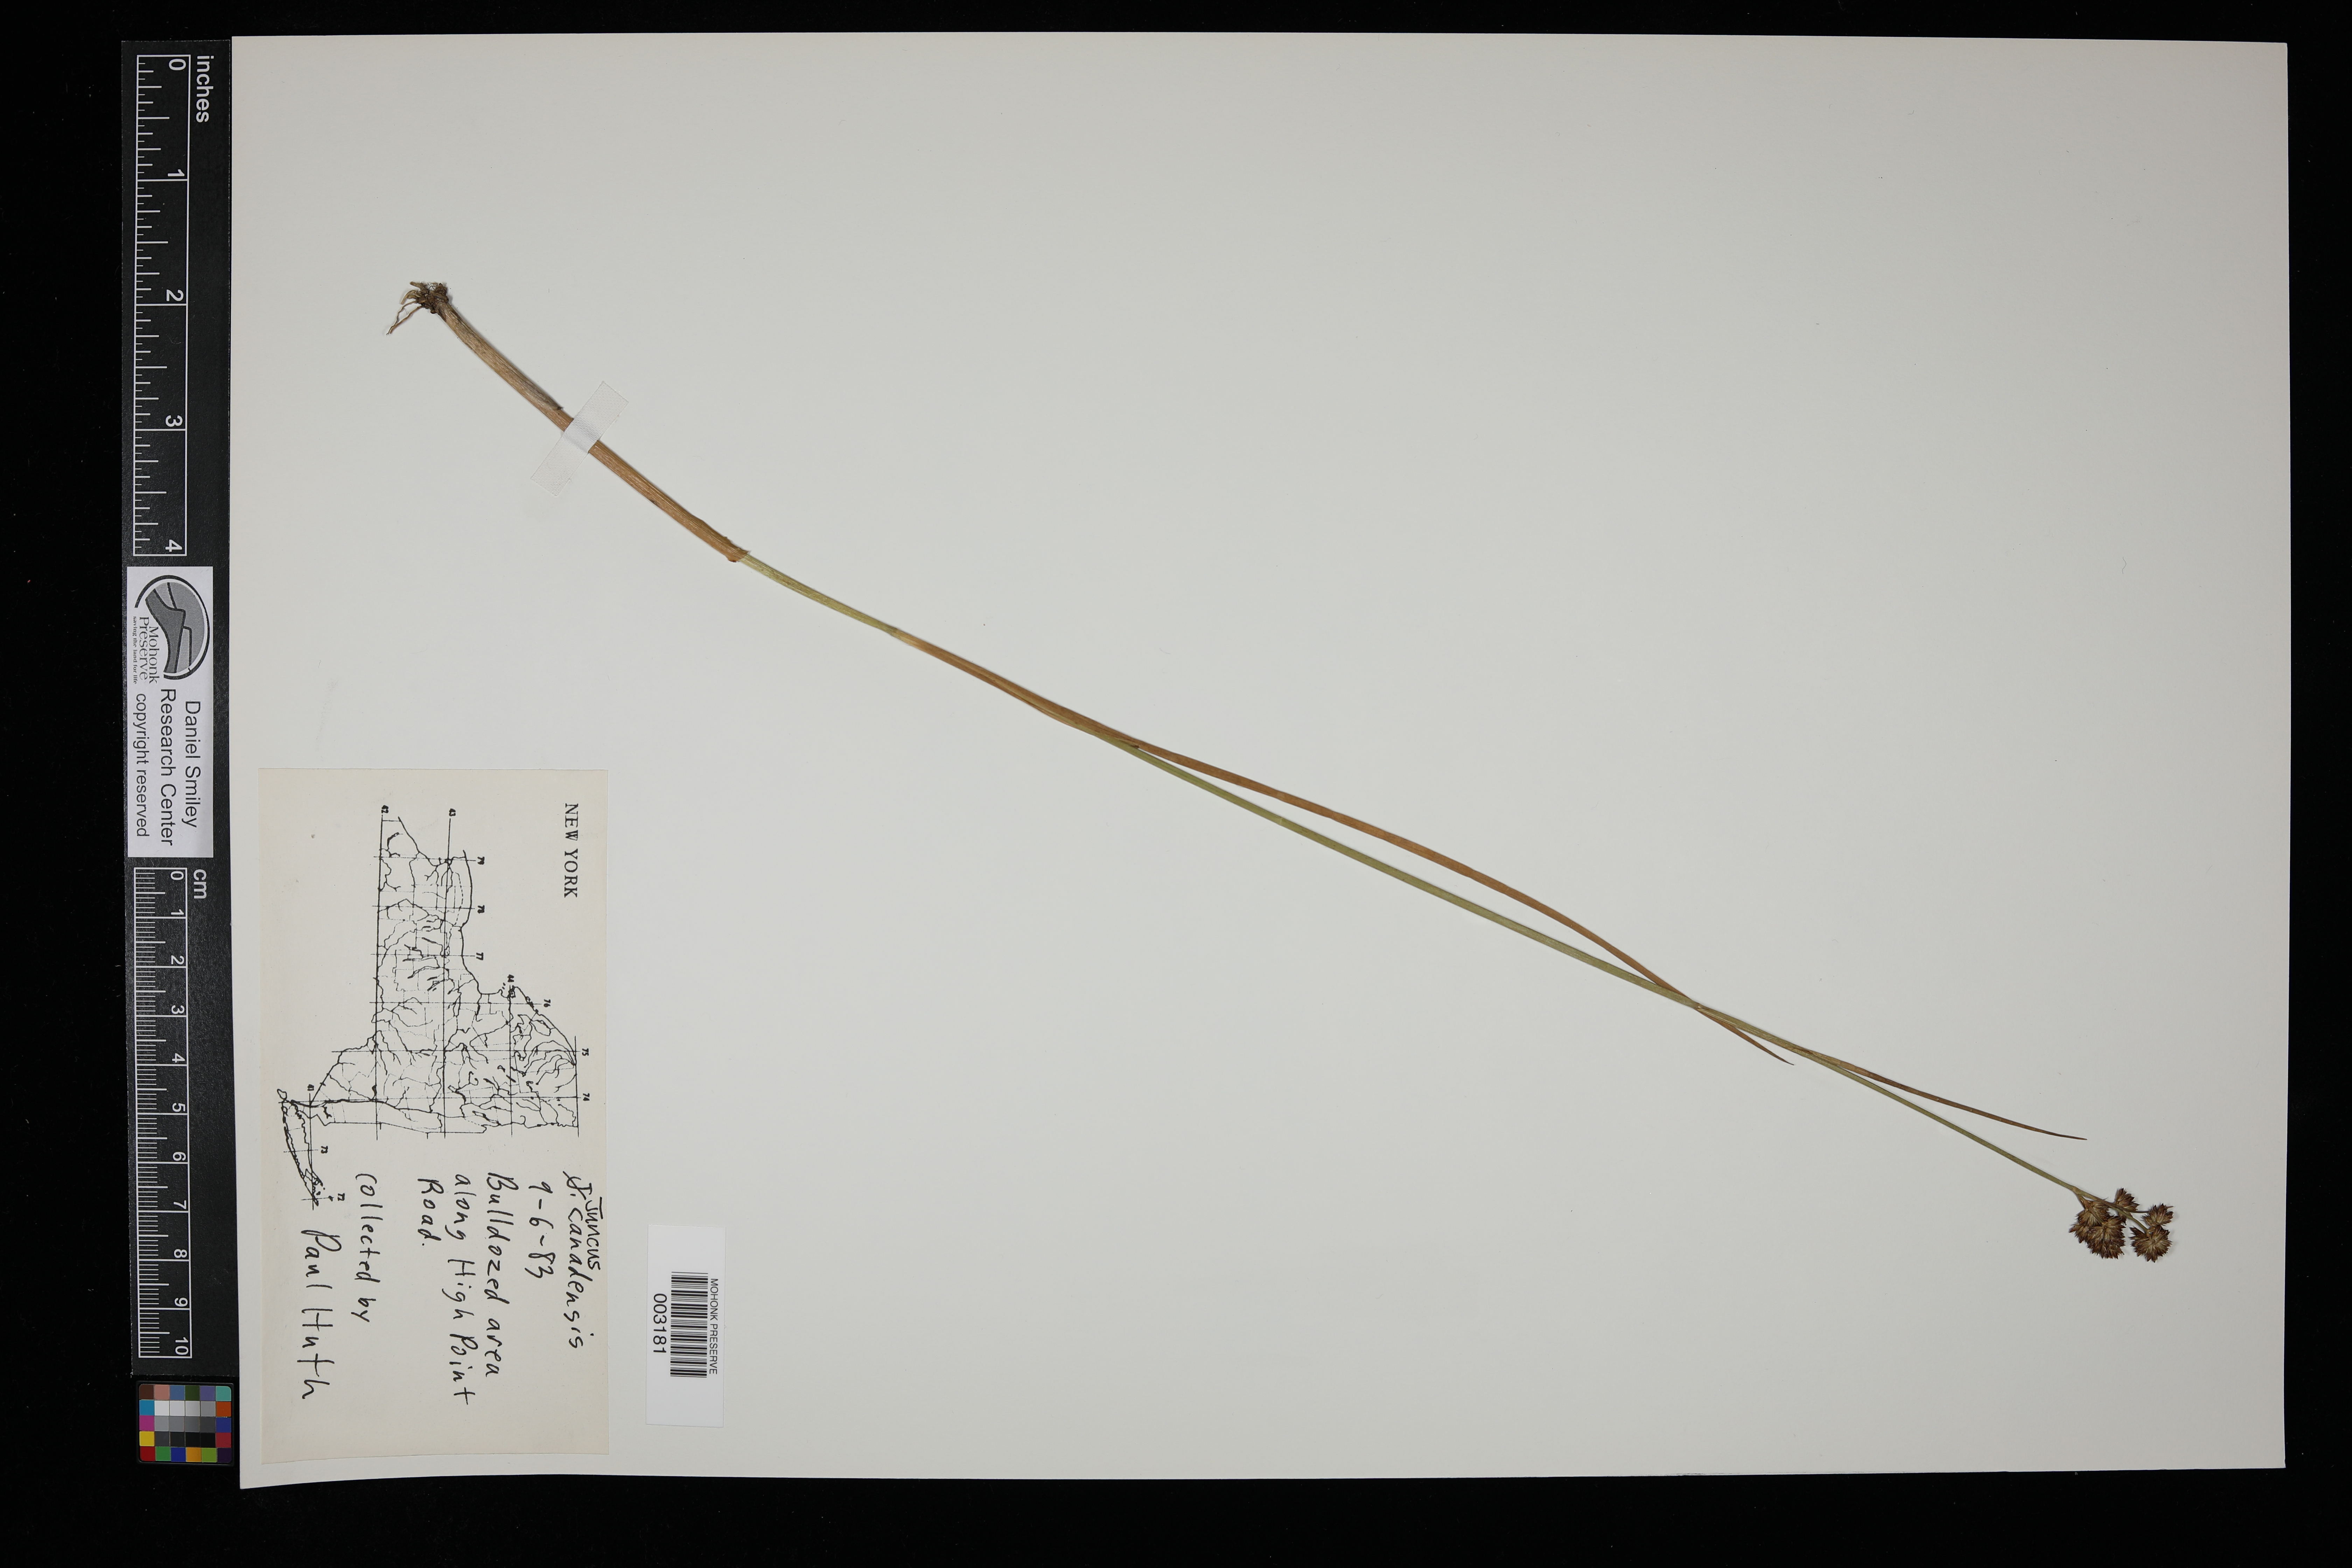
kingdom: Plantae
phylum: Tracheophyta
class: Liliopsida
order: Poales
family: Juncaceae
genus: Juncus
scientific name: Juncus canadensis
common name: Canada rush
